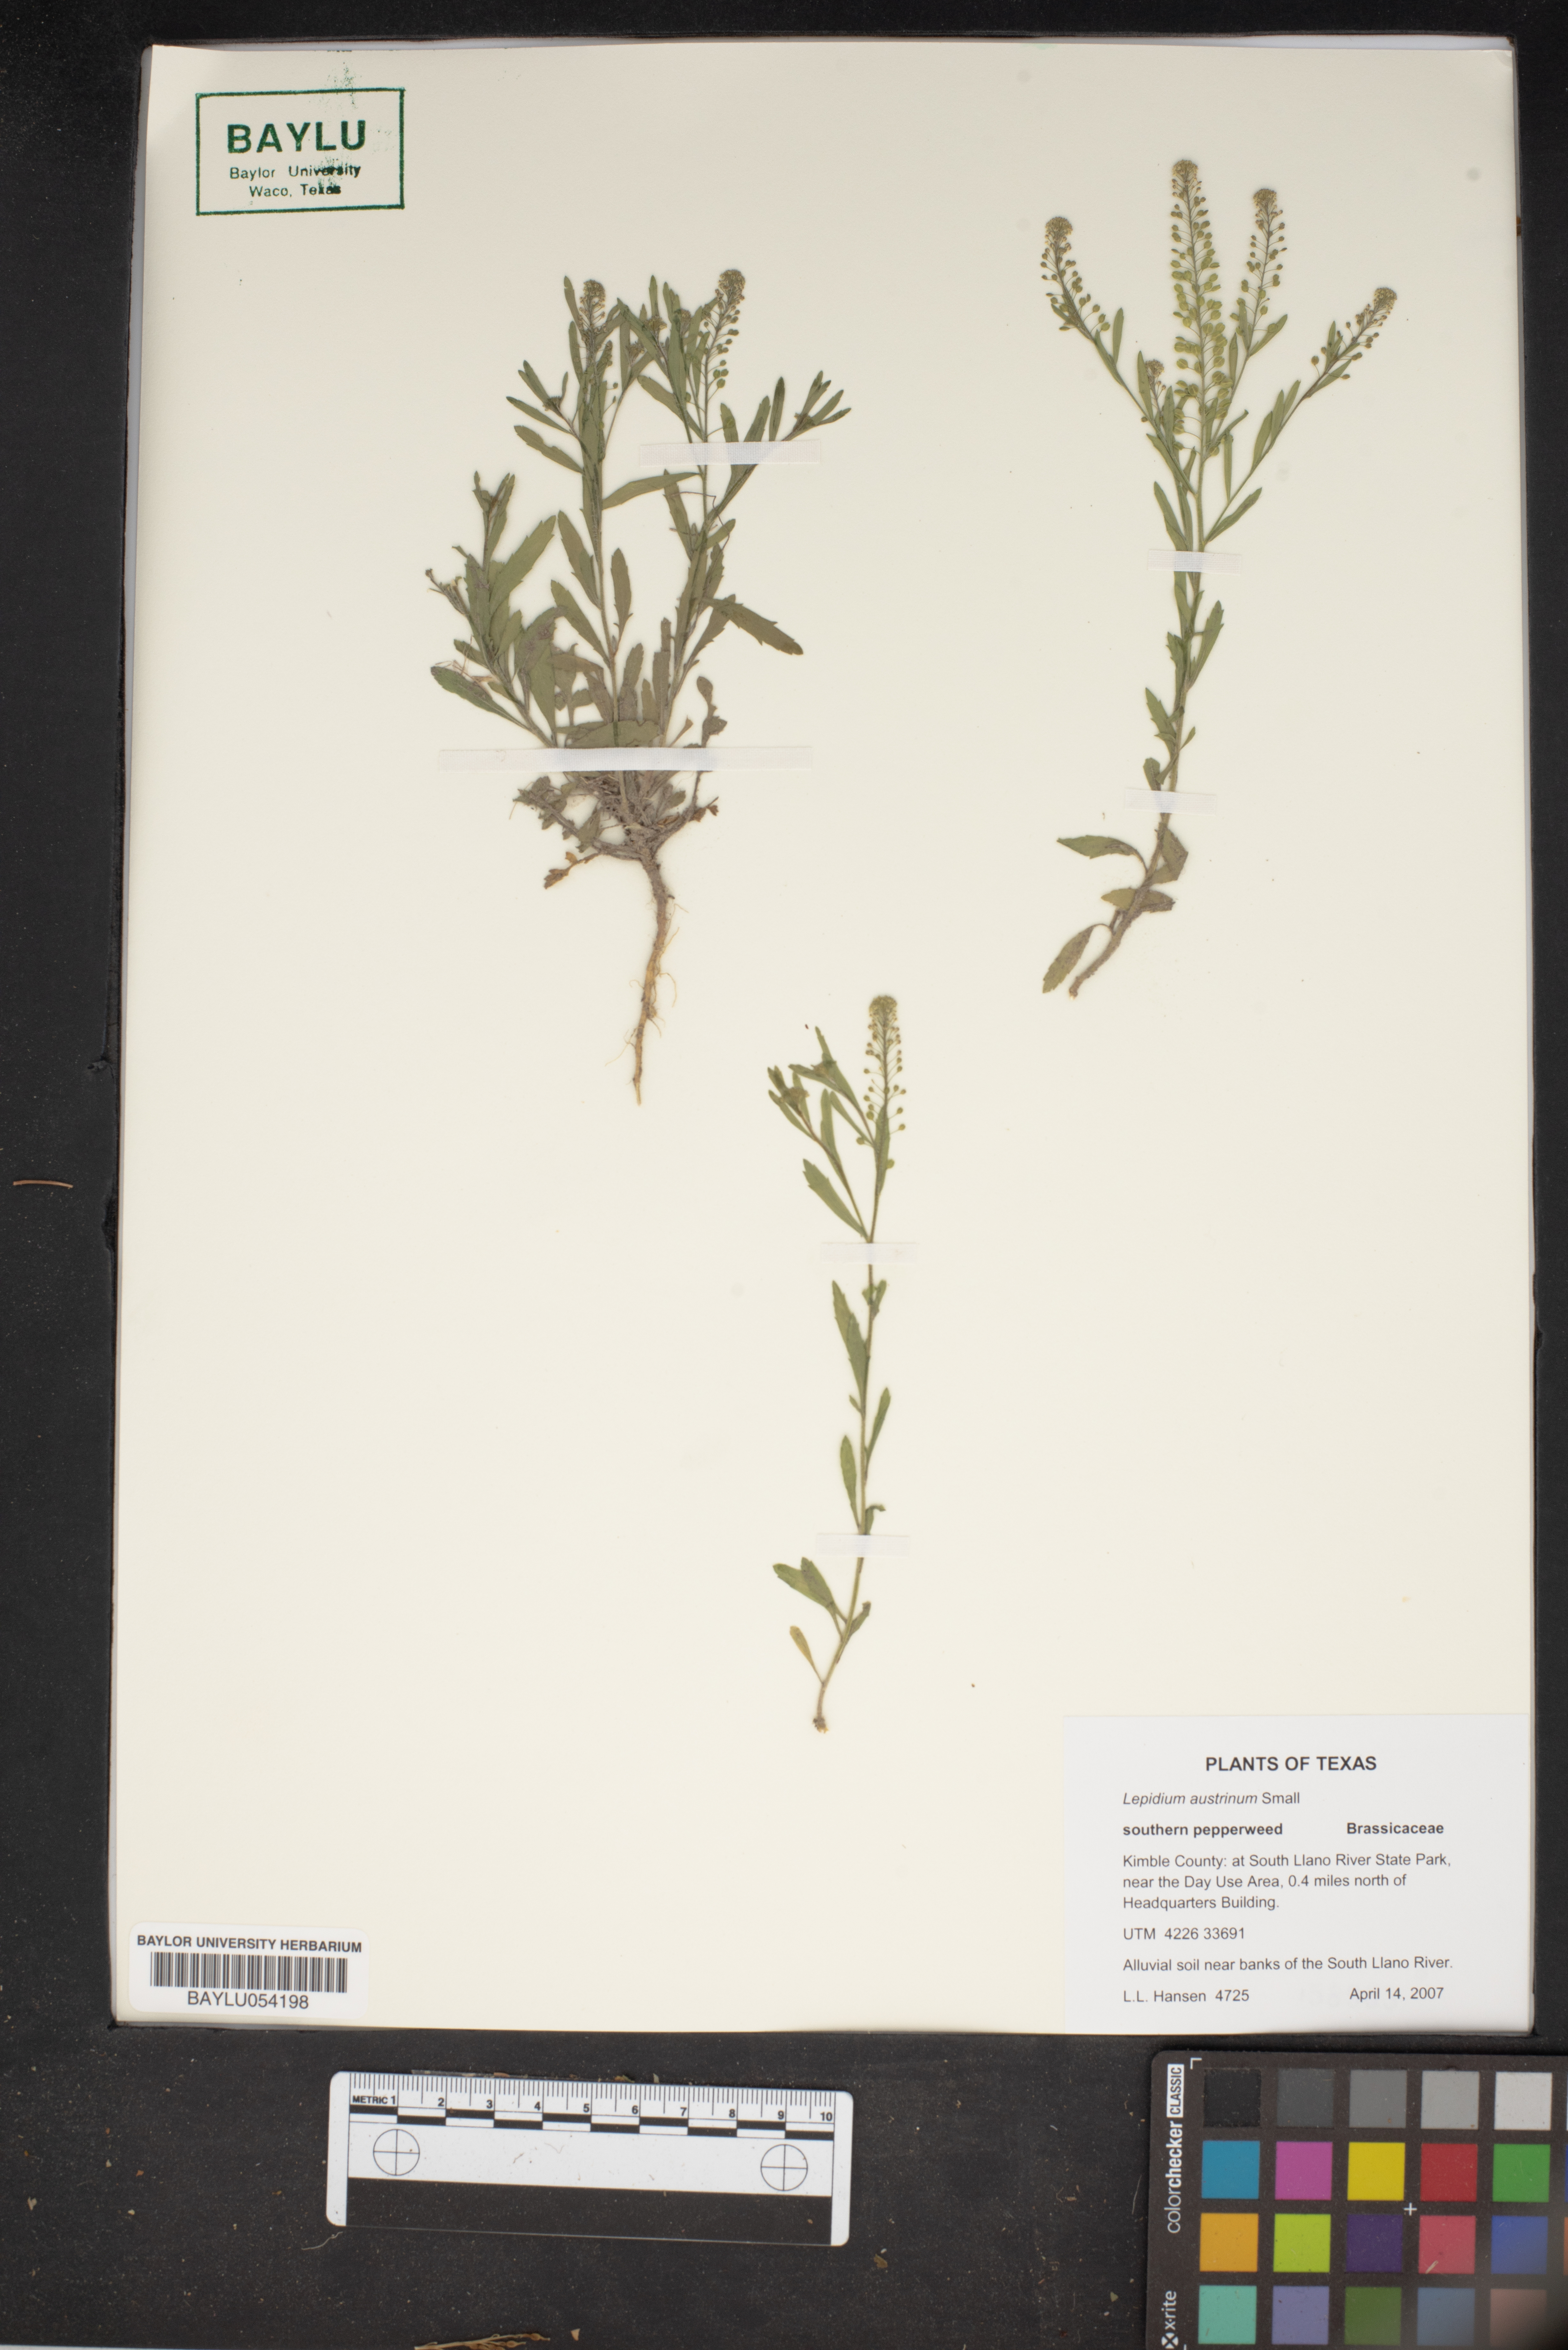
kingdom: Plantae
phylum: Tracheophyta
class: Magnoliopsida
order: Brassicales
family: Brassicaceae
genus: Lepidium
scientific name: Lepidium austrinum
